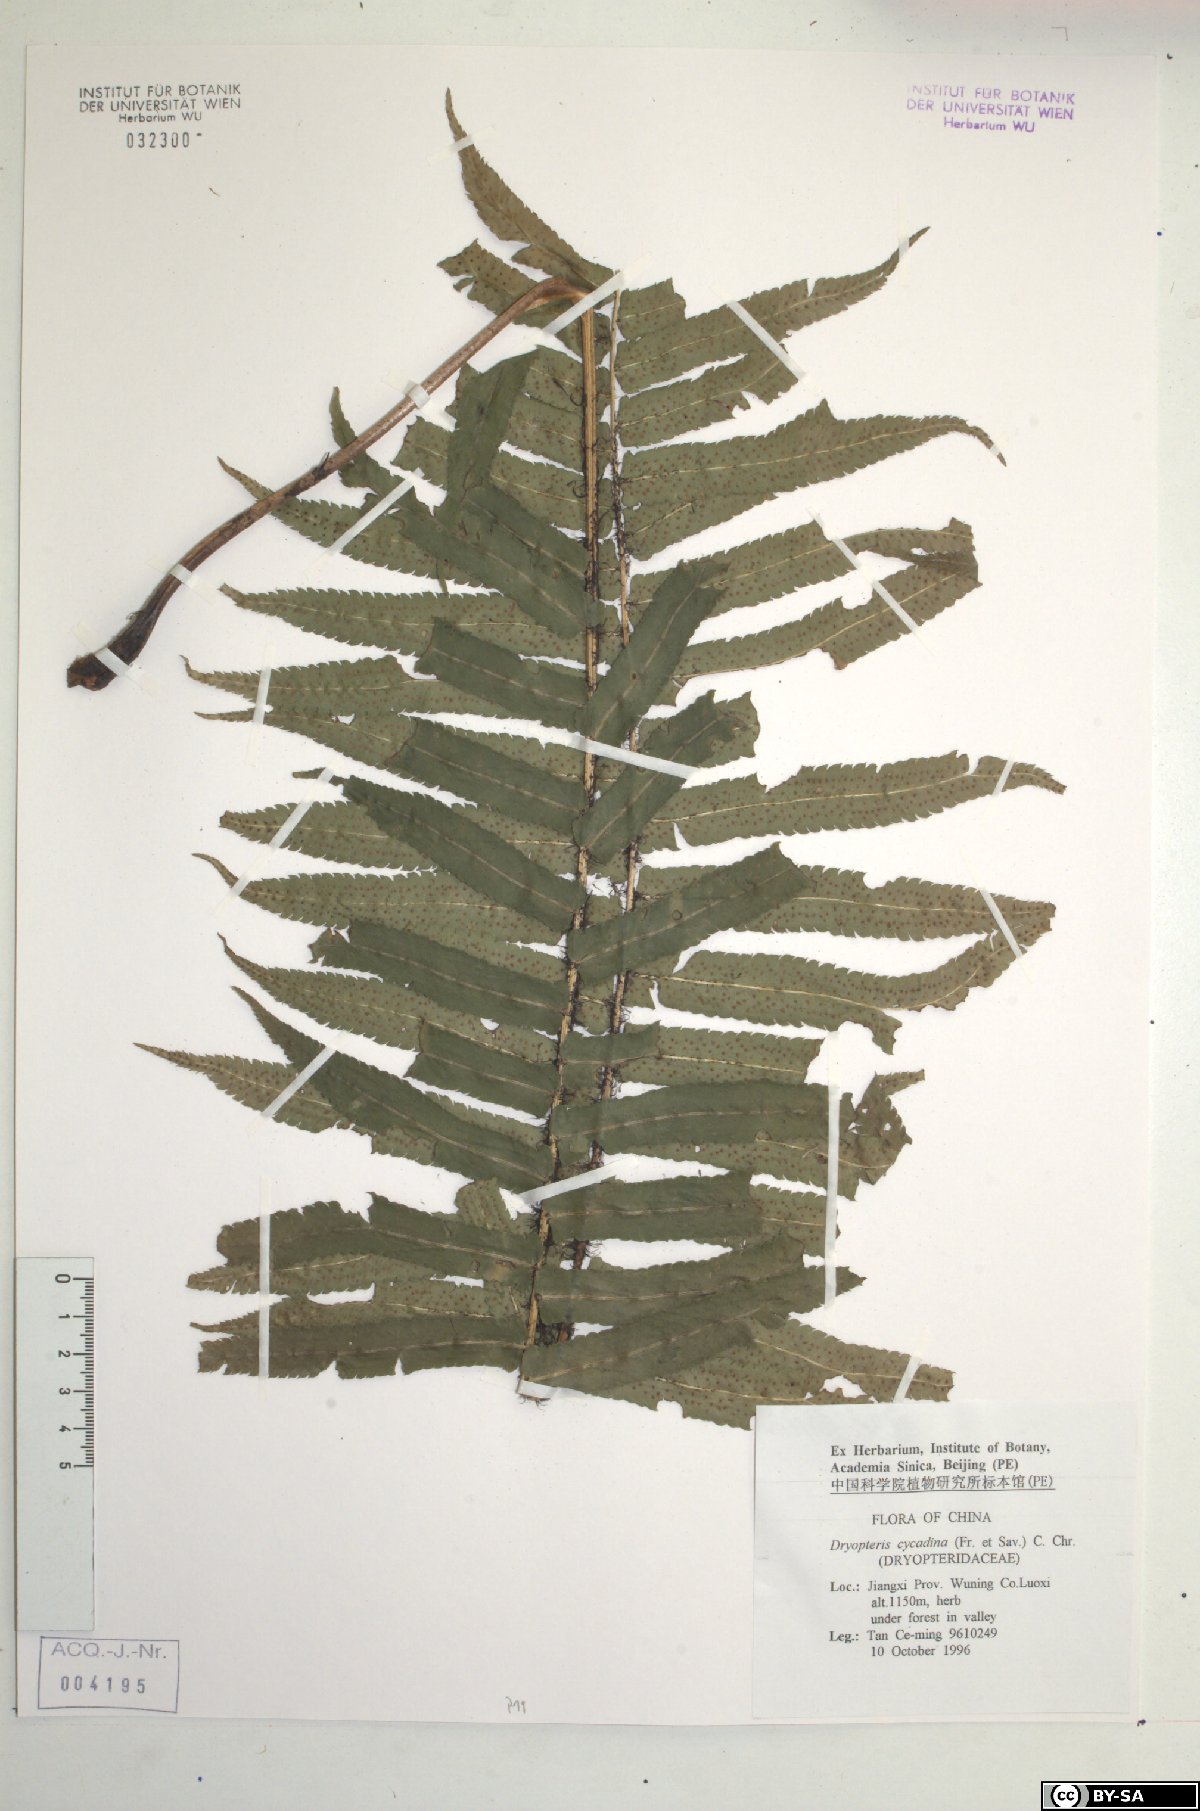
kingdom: Plantae
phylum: Tracheophyta
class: Polypodiopsida
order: Polypodiales
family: Dryopteridaceae
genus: Dryopteris
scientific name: Dryopteris atrata
